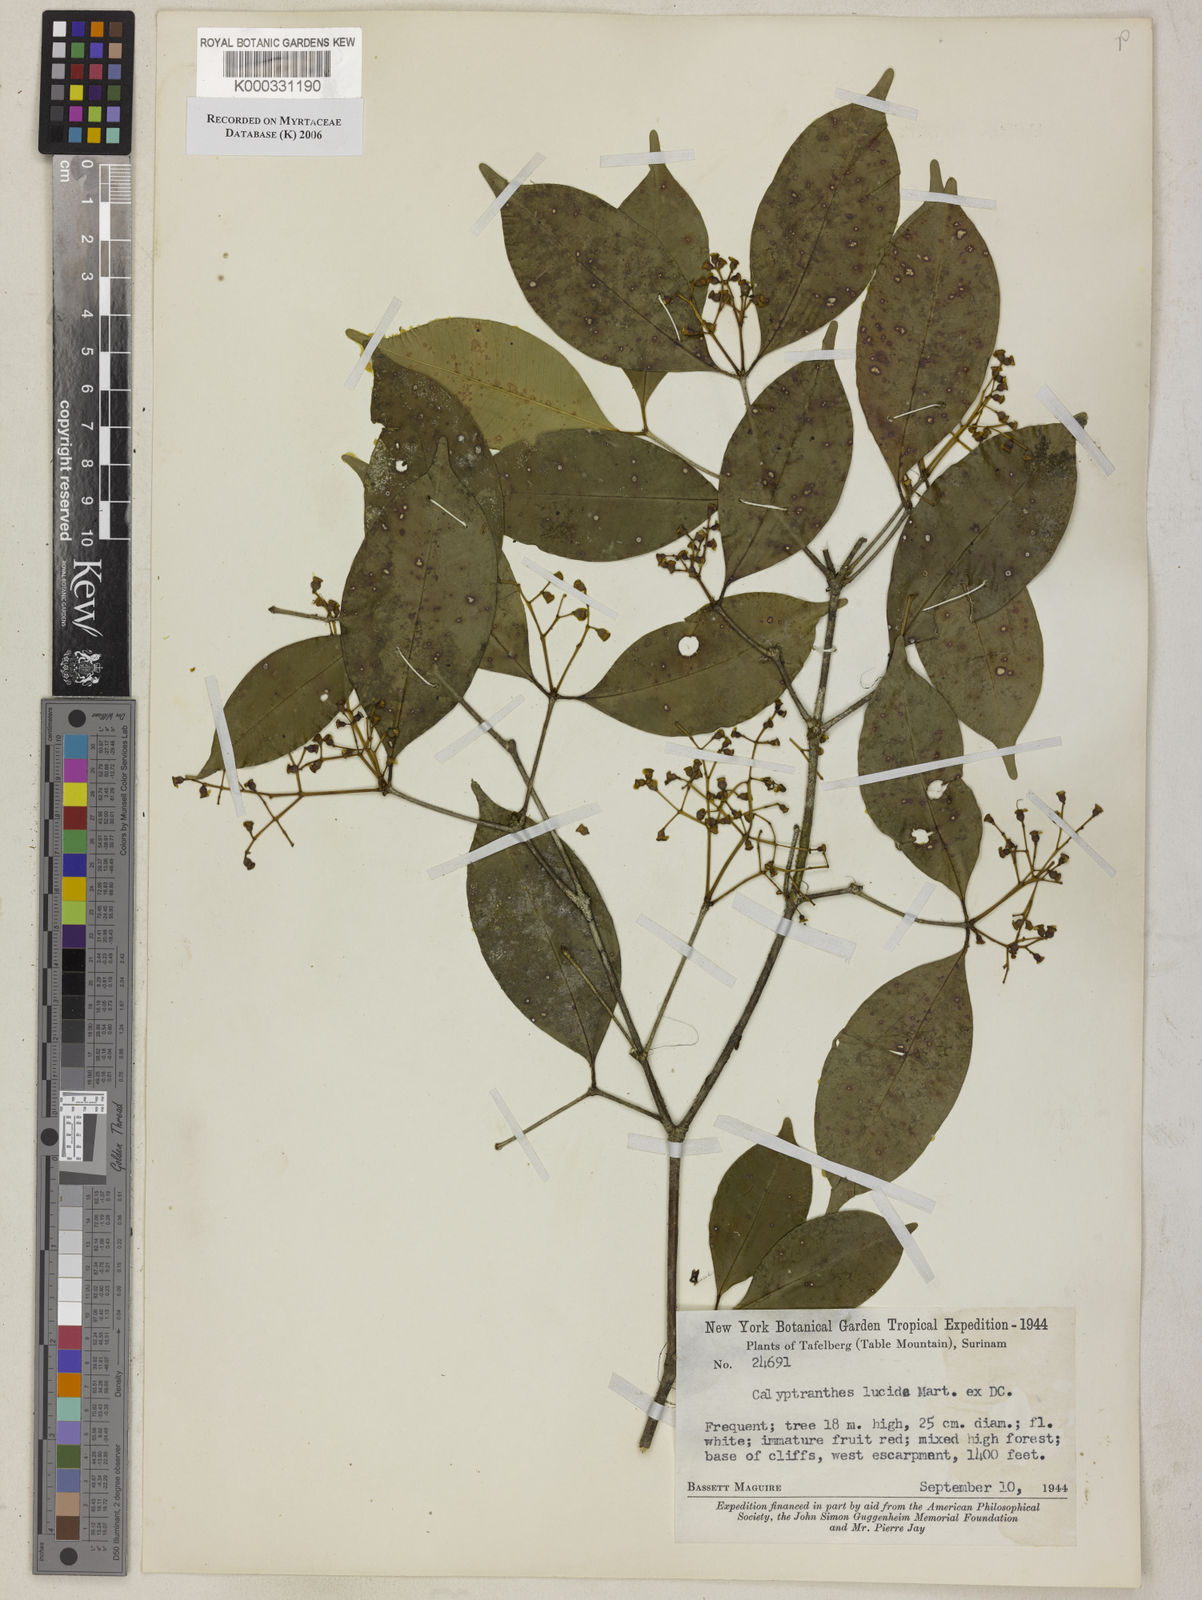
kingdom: Plantae
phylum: Tracheophyta
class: Magnoliopsida
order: Myrtales
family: Myrtaceae
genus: Myrcia
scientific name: Myrcia neolucida
